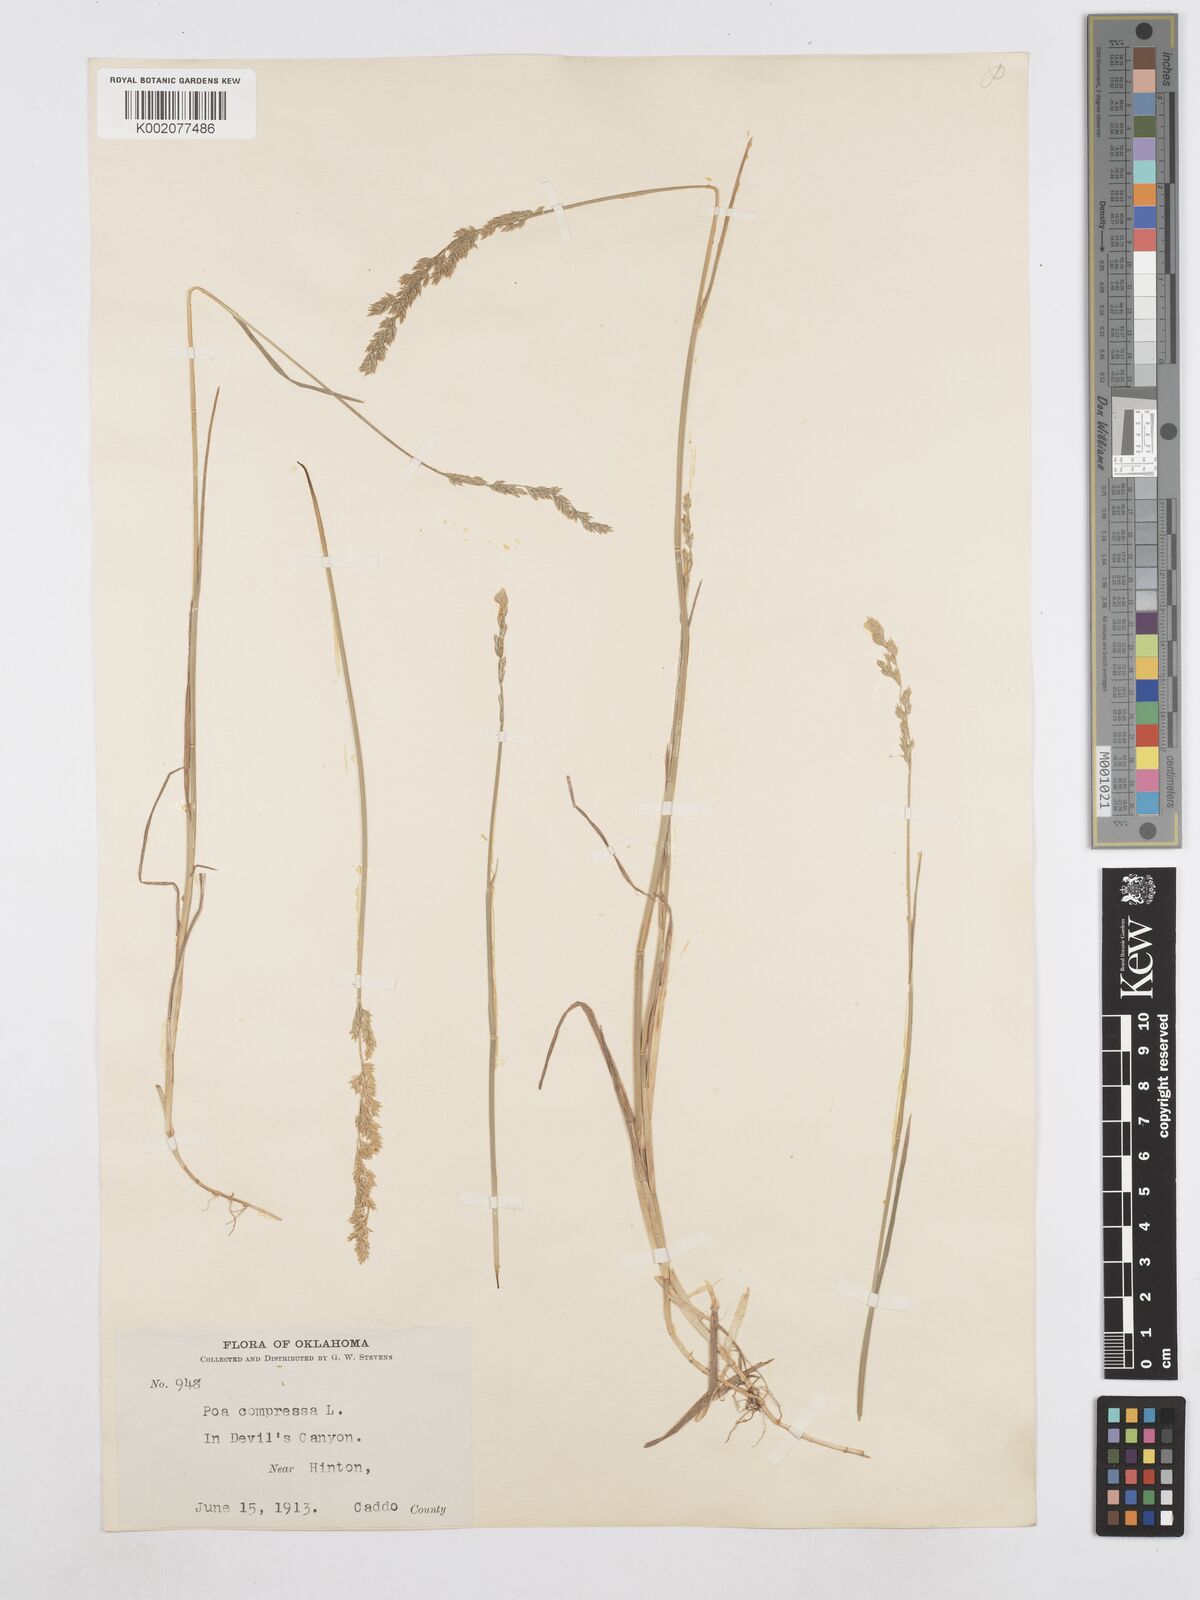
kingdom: Plantae
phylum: Tracheophyta
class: Liliopsida
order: Poales
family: Poaceae
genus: Poa
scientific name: Poa compressa
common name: Canada bluegrass
